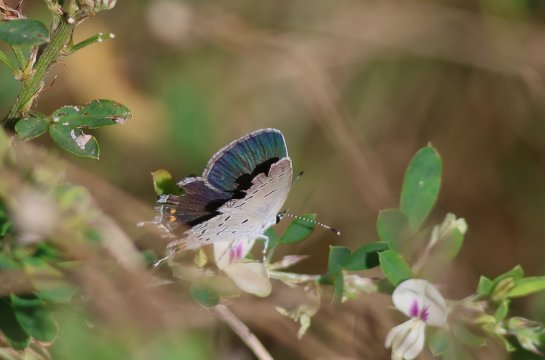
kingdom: Animalia
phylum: Arthropoda
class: Insecta
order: Lepidoptera
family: Lycaenidae
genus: Elkalyce
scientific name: Elkalyce comyntas
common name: Eastern Tailed-Blue
